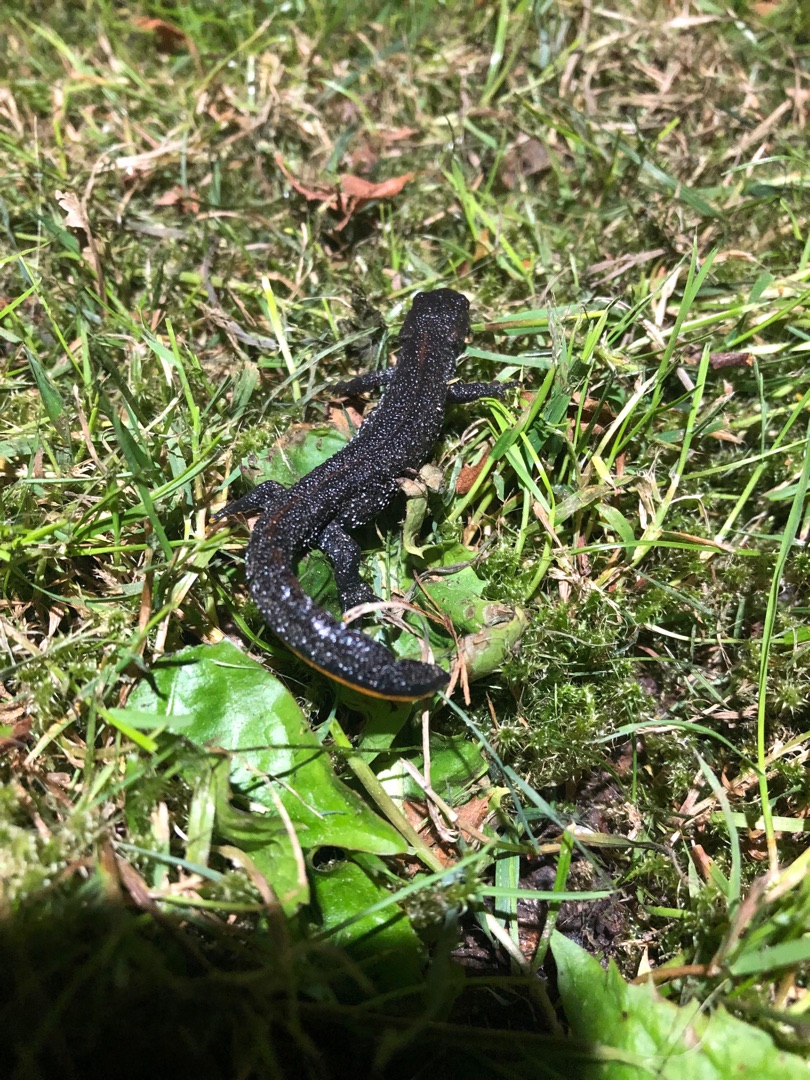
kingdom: Animalia
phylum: Chordata
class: Amphibia
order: Caudata
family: Salamandridae
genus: Triturus
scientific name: Triturus cristatus
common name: Stor vandsalamander
